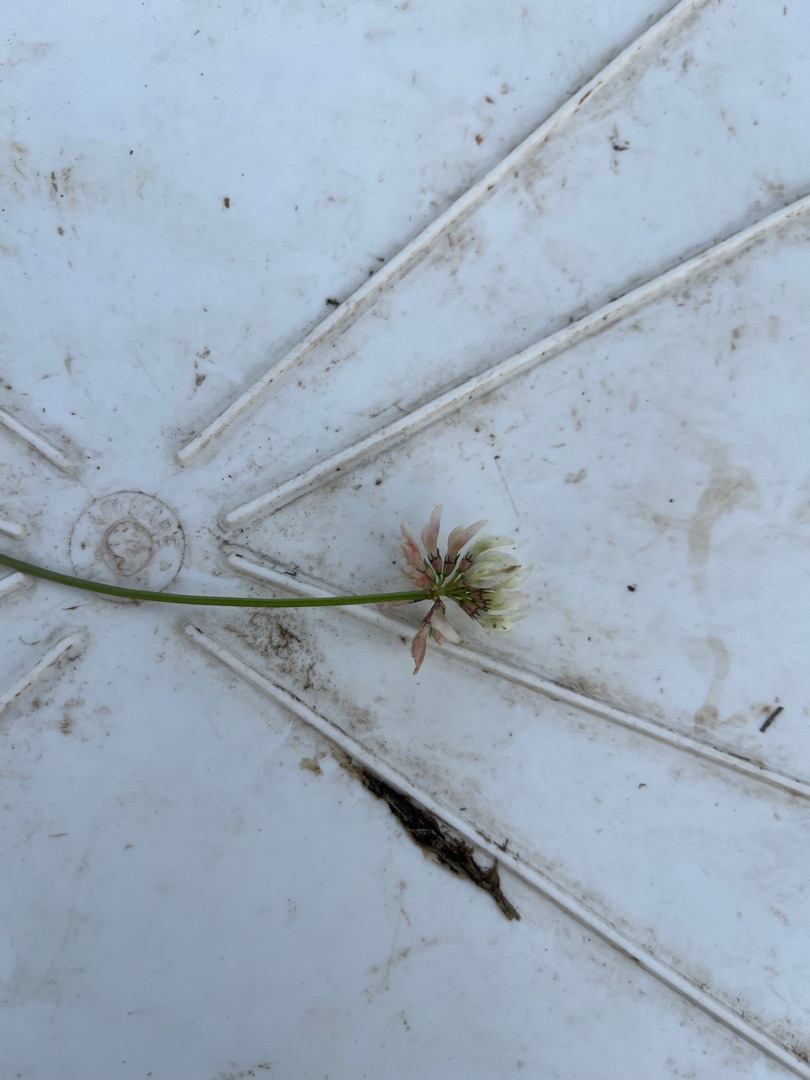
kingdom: Plantae
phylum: Tracheophyta
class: Magnoliopsida
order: Fabales
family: Fabaceae
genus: Trifolium
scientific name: Trifolium repens
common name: Hvid-kløver
